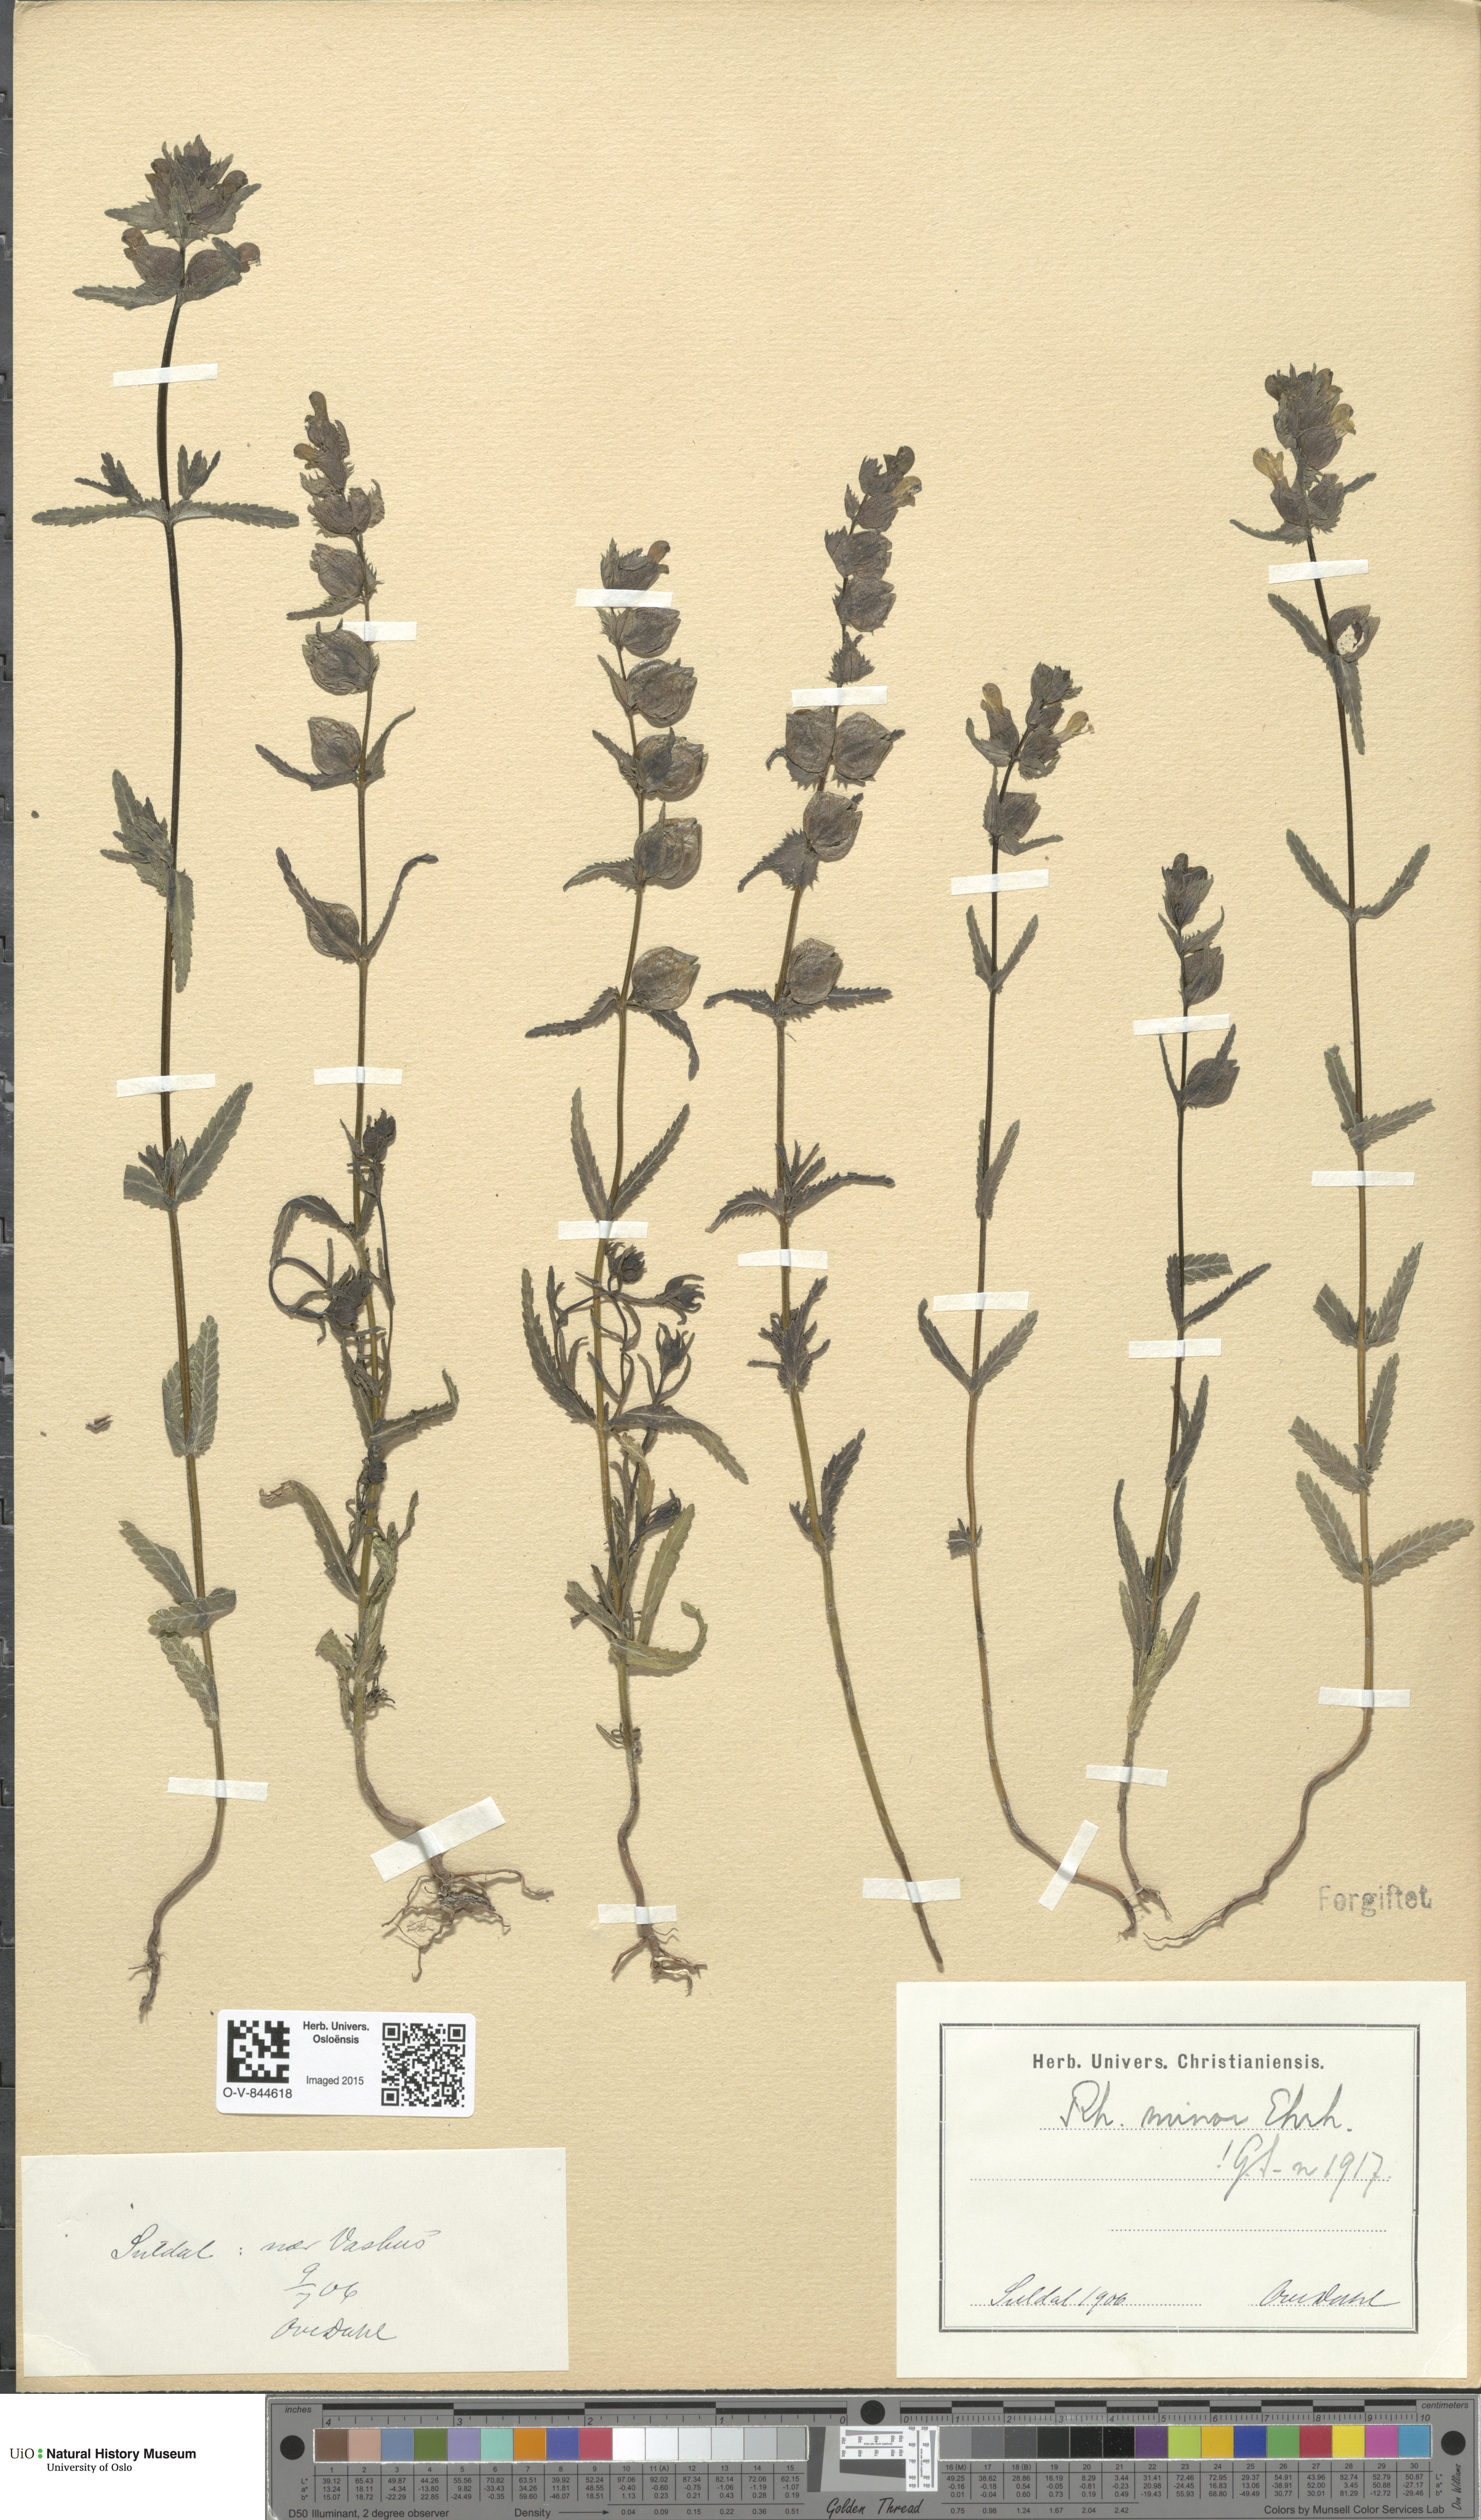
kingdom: Plantae
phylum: Tracheophyta
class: Magnoliopsida
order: Lamiales
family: Orobanchaceae
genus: Rhinanthus
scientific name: Rhinanthus minor
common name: Yellow-rattle
